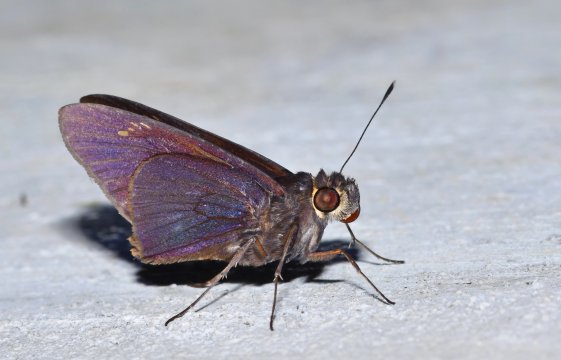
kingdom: Animalia
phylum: Arthropoda
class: Insecta
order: Lepidoptera
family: Hesperiidae
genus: Damas
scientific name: Damas clavus
